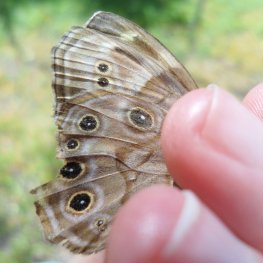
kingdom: Animalia
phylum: Arthropoda
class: Insecta
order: Lepidoptera
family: Nymphalidae
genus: Lethe
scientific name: Lethe anthedon
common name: Northern Pearly-Eye
